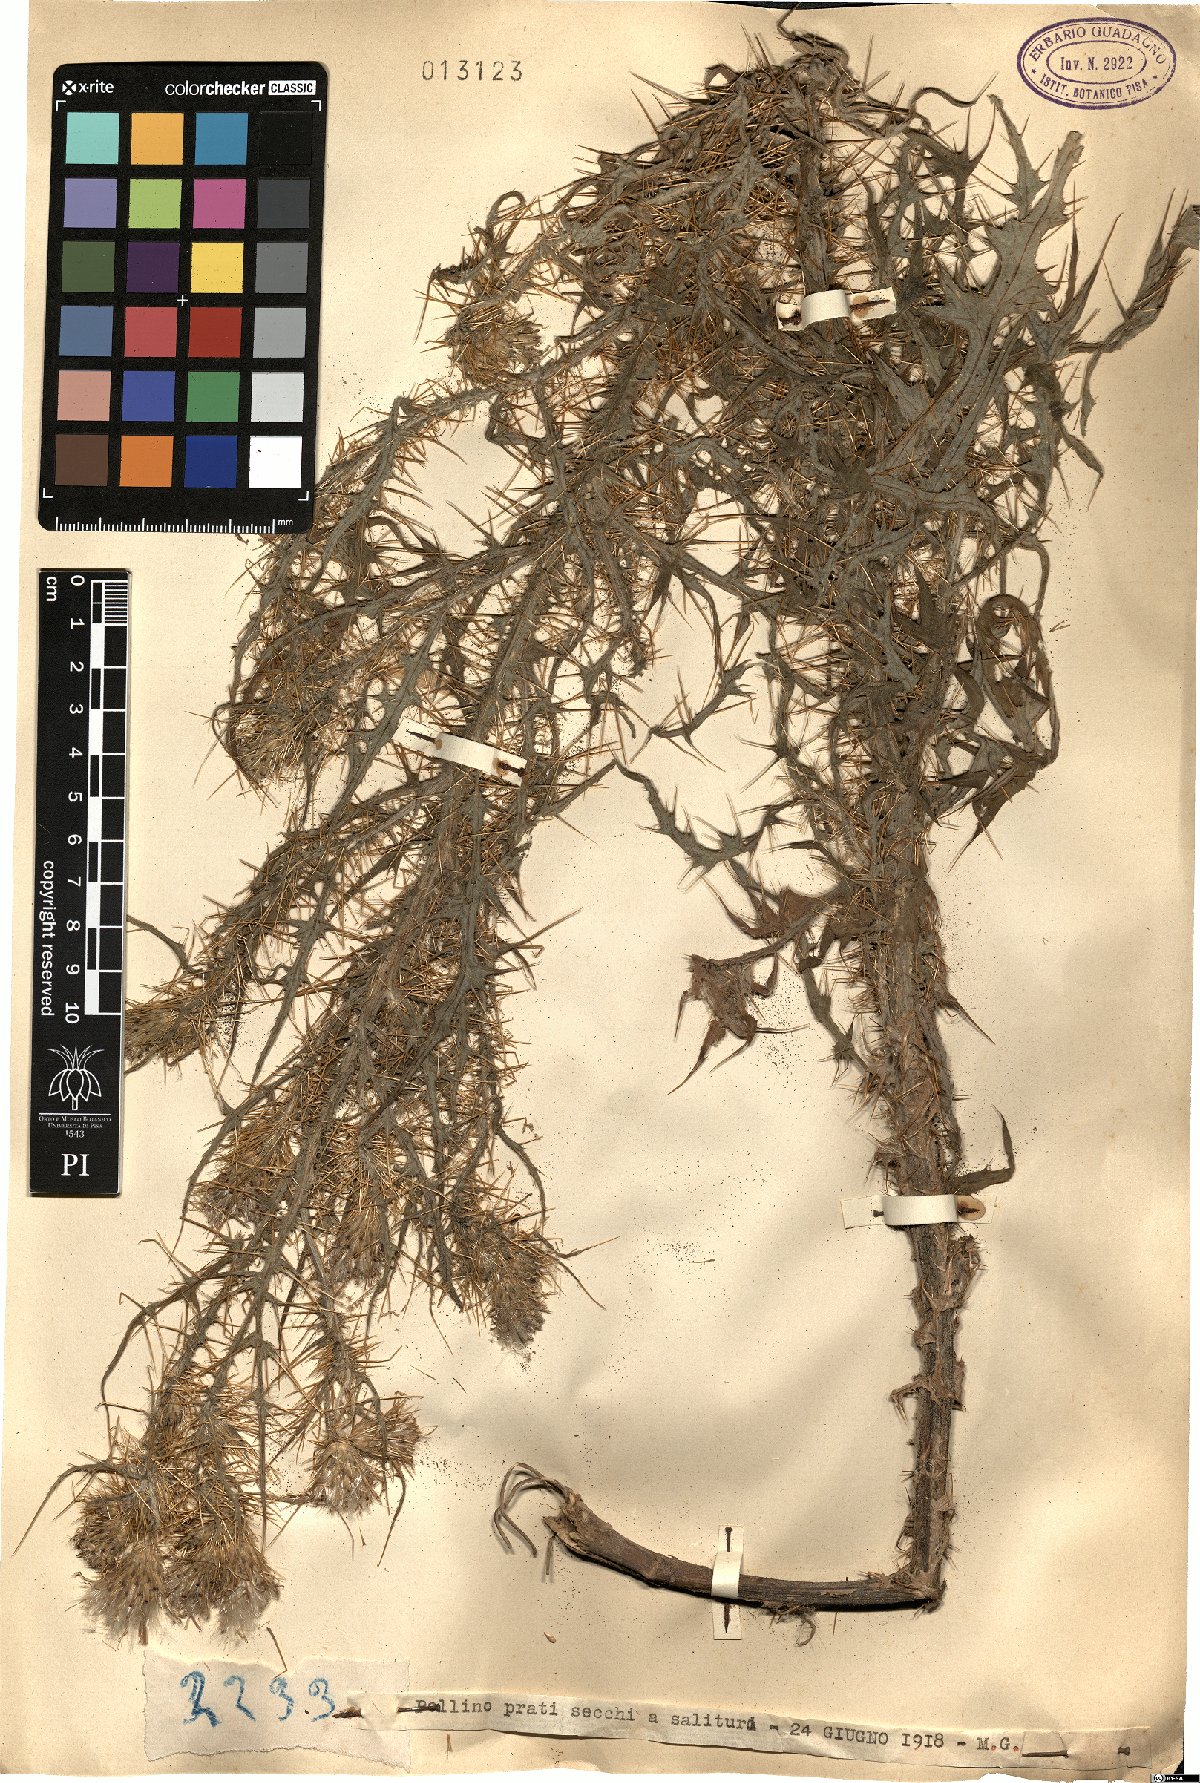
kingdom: Plantae
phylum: Tracheophyta
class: Magnoliopsida
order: Asterales
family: Asteraceae
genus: Cirsium
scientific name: Cirsium
